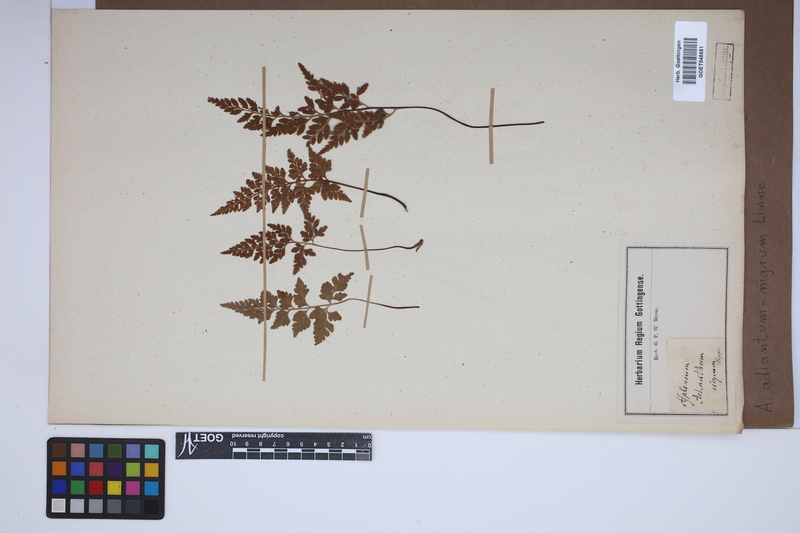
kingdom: Plantae
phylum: Tracheophyta
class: Polypodiopsida
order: Polypodiales
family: Aspleniaceae
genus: Asplenium
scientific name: Asplenium adiantum-nigrum
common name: Black spleenwort
